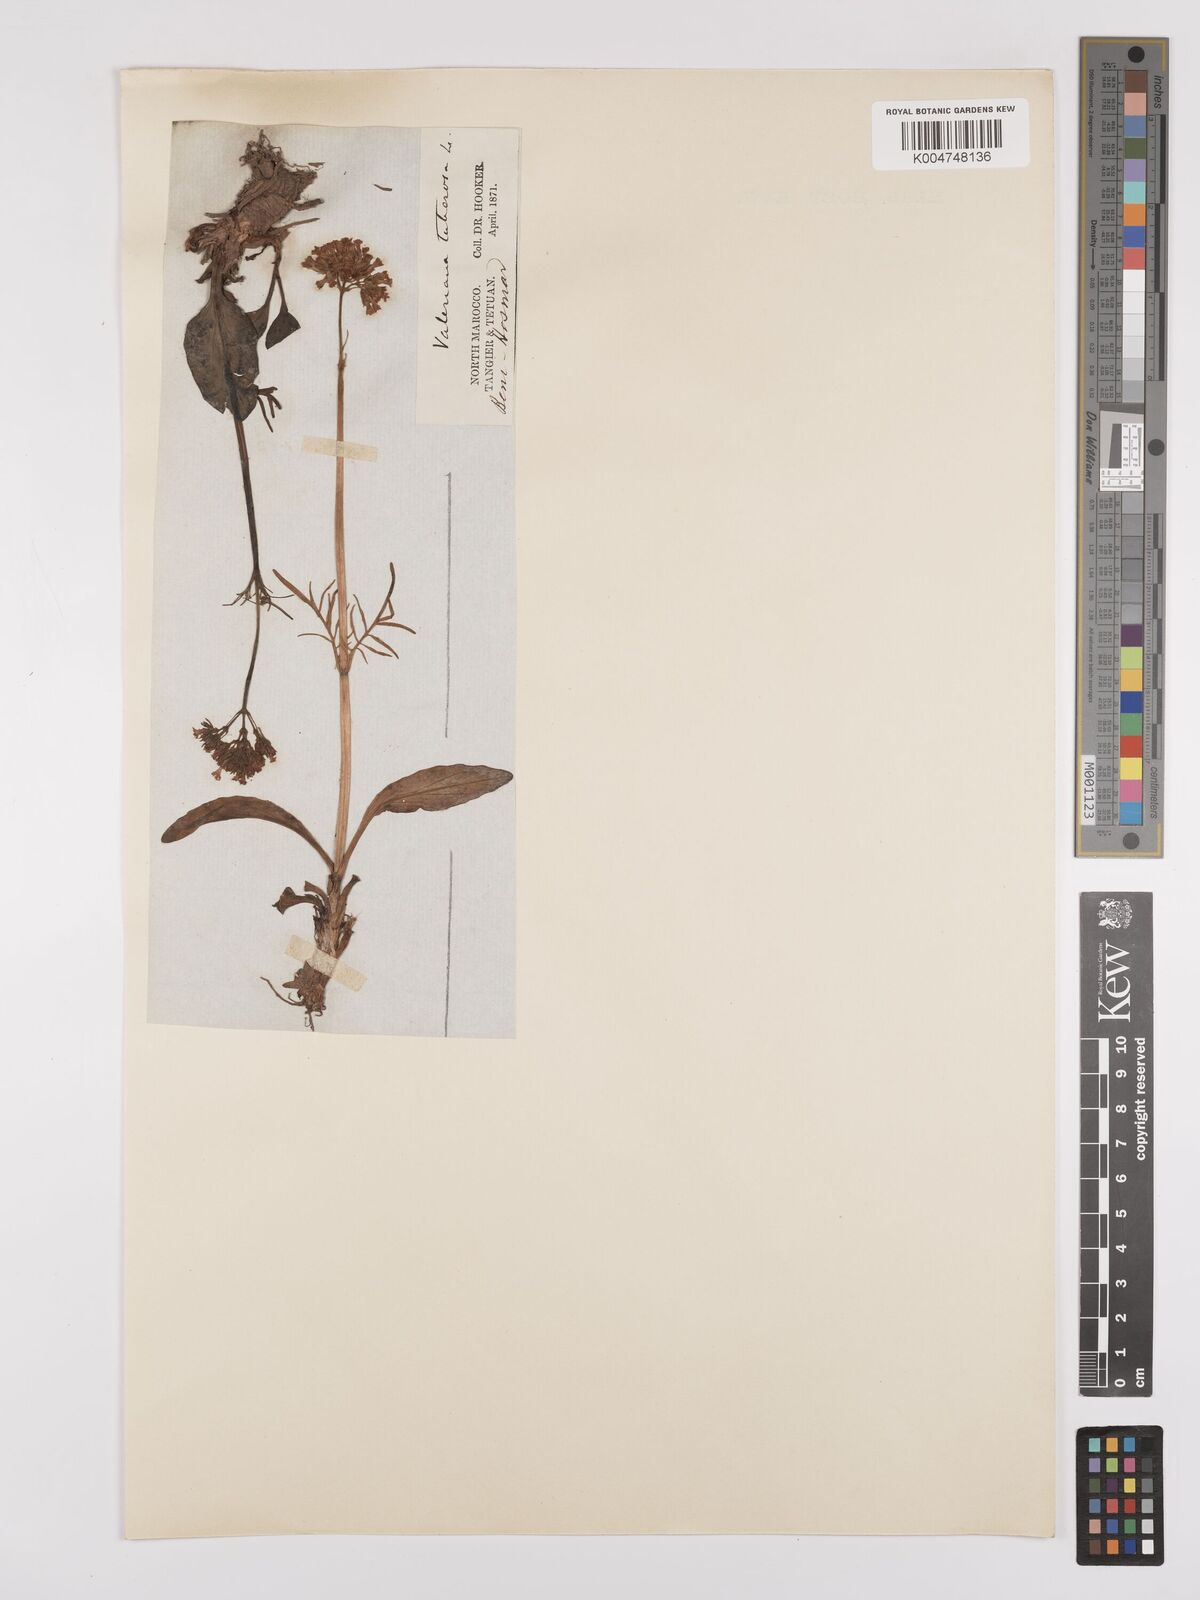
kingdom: Plantae
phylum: Tracheophyta
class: Magnoliopsida
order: Dipsacales
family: Caprifoliaceae
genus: Valeriana
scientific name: Valeriana tuberosa
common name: Tuberous valerian
